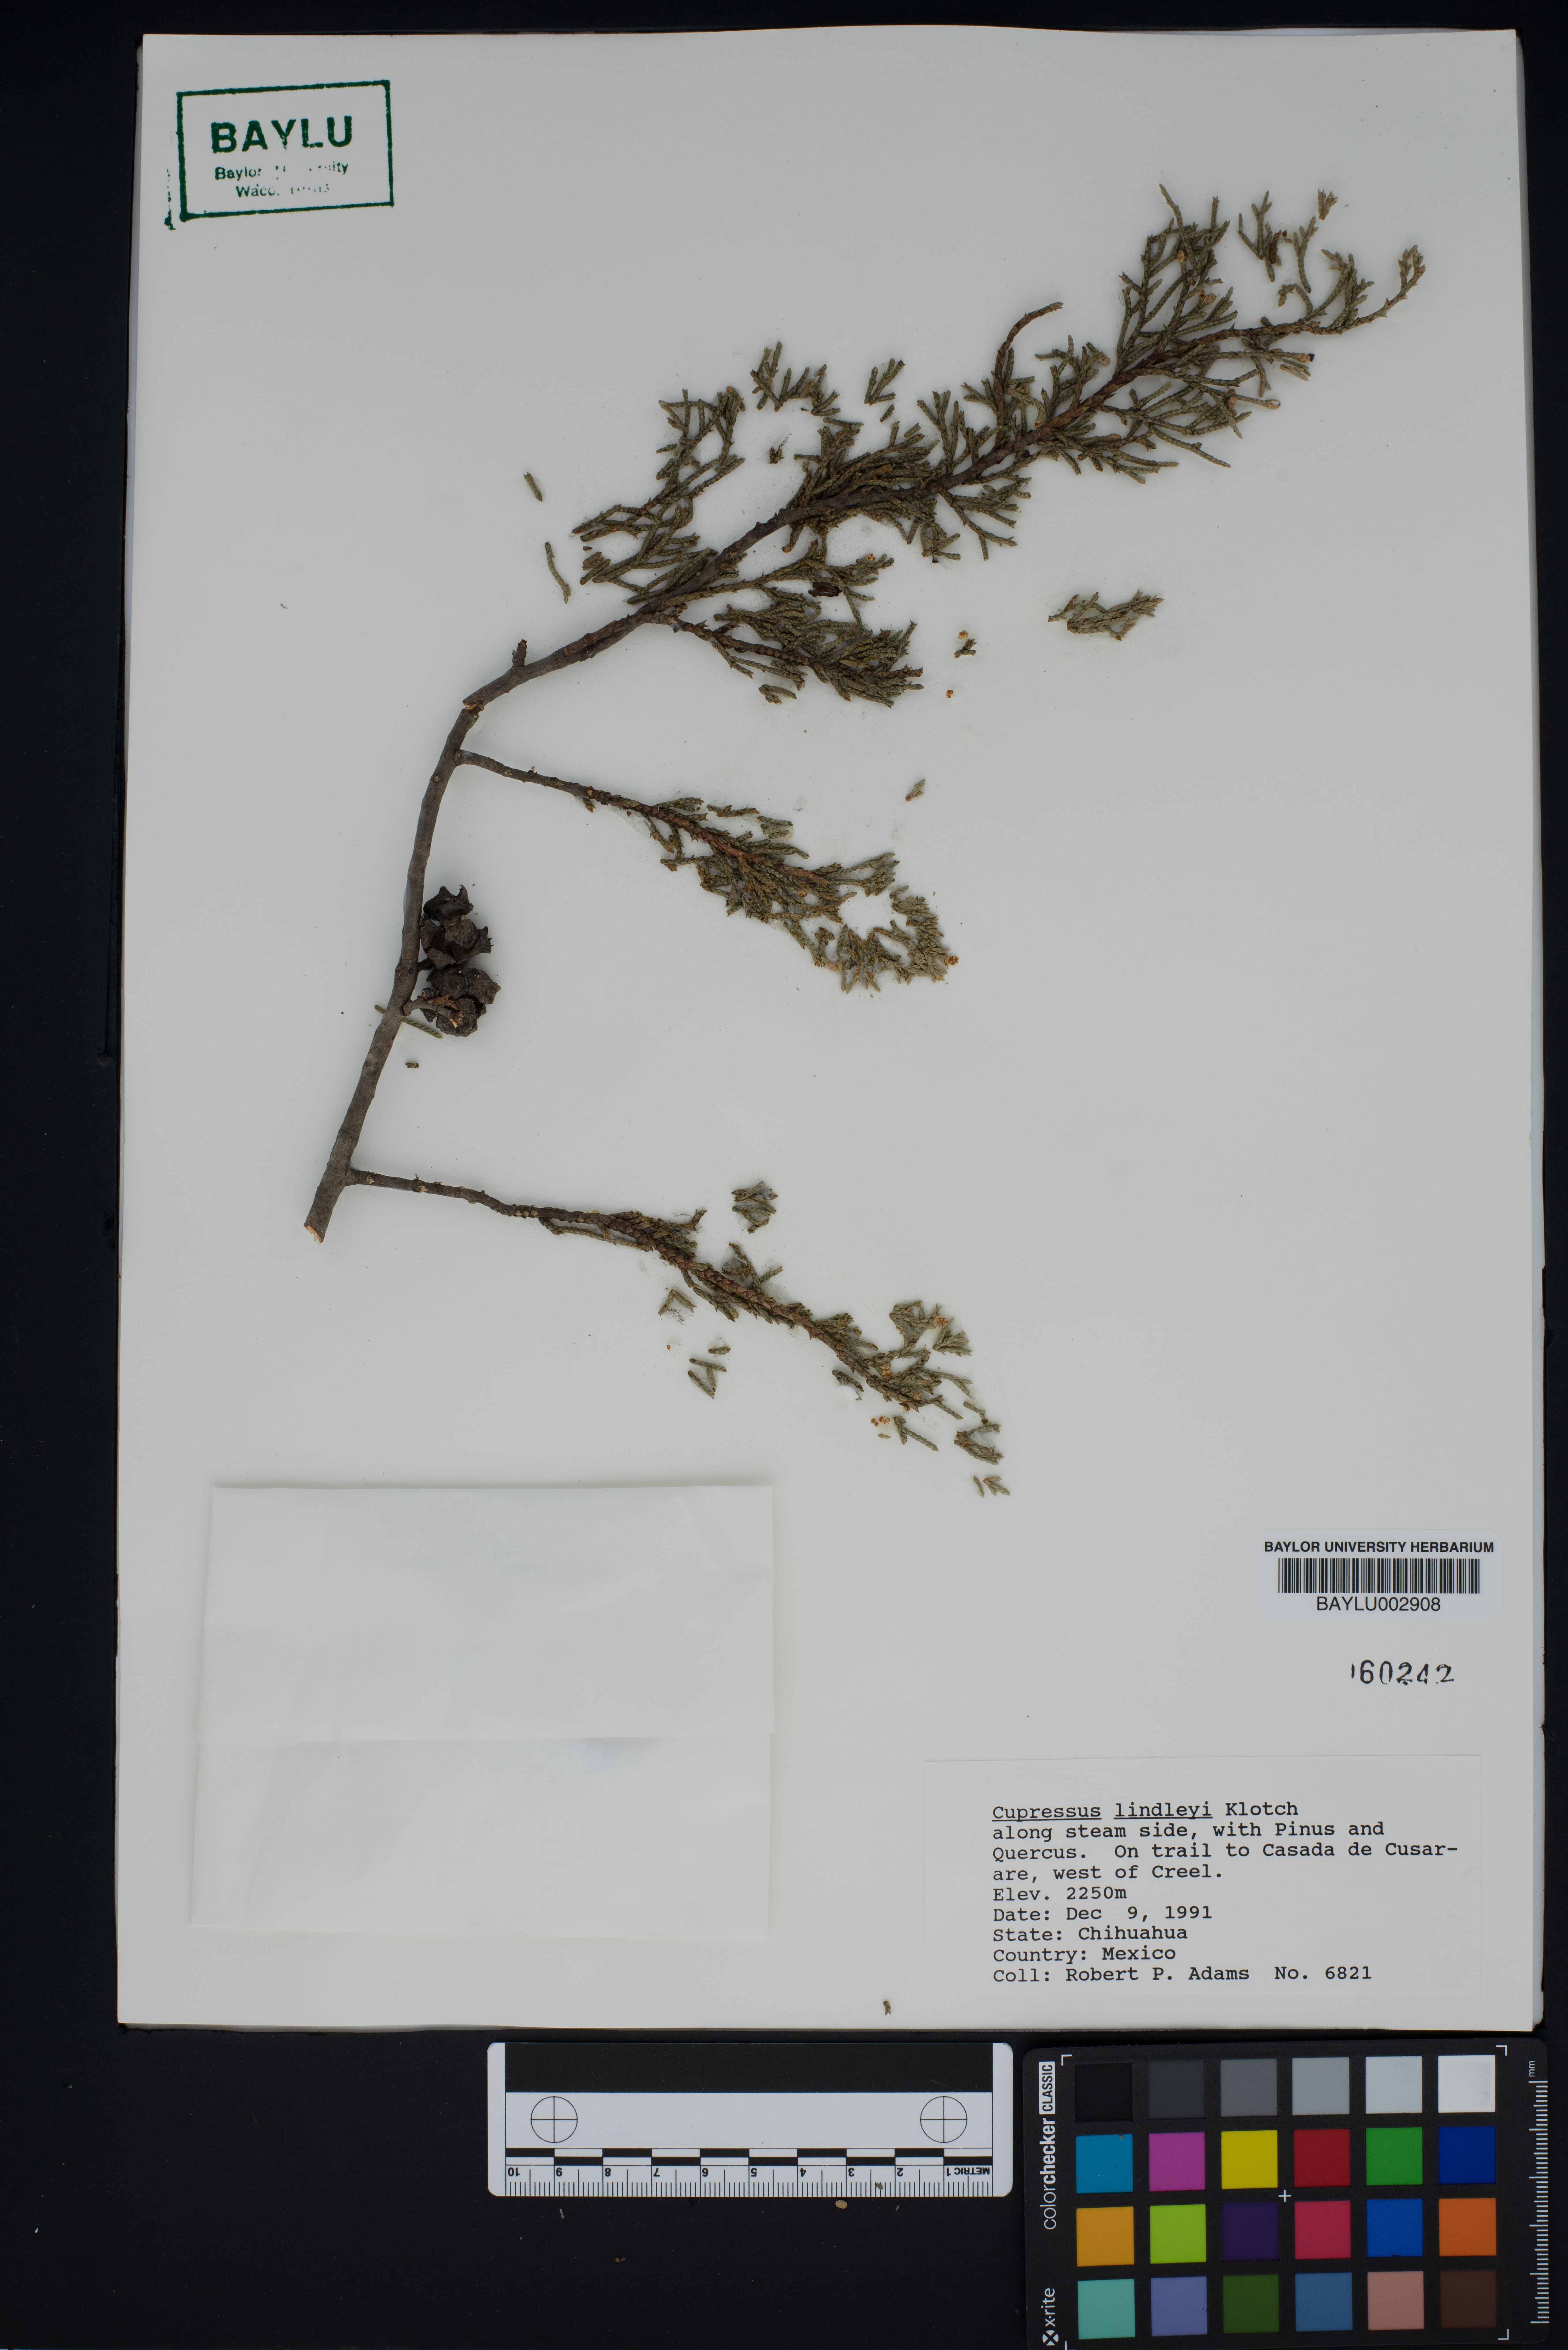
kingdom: Plantae
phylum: Tracheophyta
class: Pinopsida
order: Pinales
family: Cupressaceae
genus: Cupressus
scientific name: Cupressus lusitanica
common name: Mexican cypress
